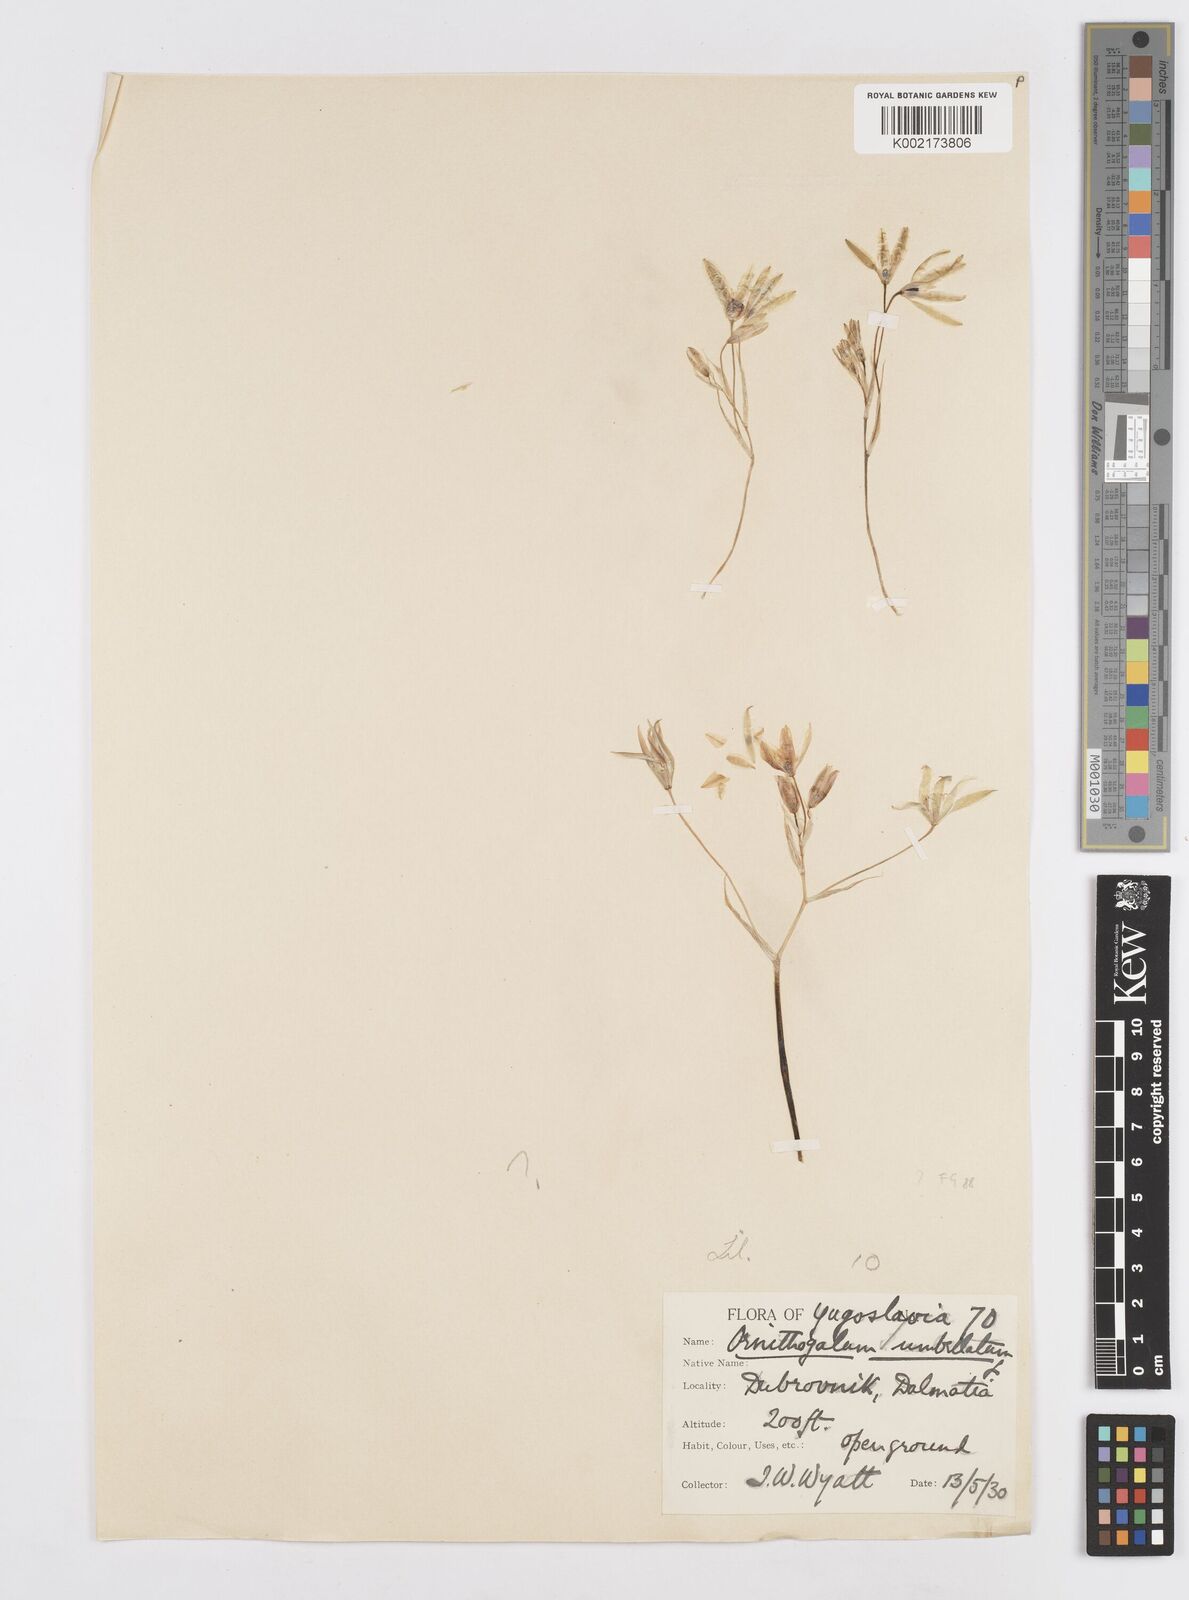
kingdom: Plantae
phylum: Tracheophyta
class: Liliopsida
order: Asparagales
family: Asparagaceae
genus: Ornithogalum
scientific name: Ornithogalum umbellatum
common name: Garden star-of-bethlehem
